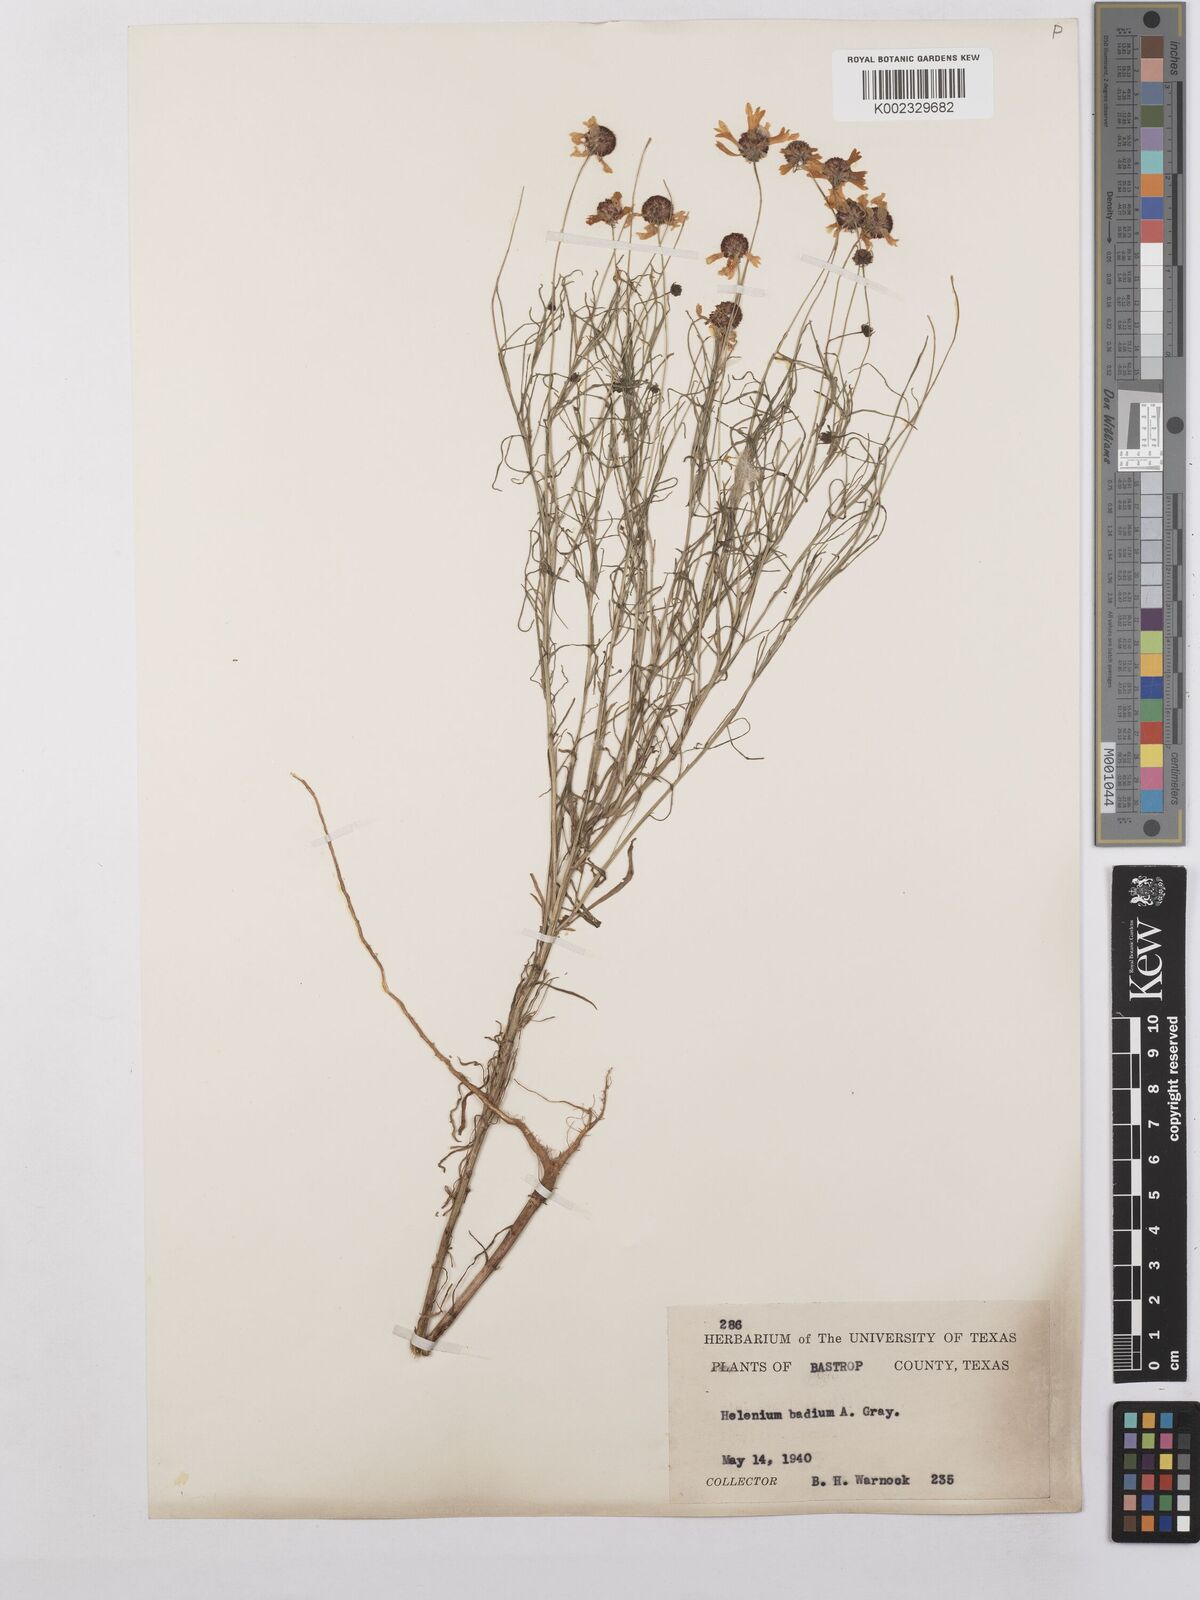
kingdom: Plantae
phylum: Tracheophyta
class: Magnoliopsida
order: Asterales
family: Asteraceae
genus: Helenium
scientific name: Helenium amarum
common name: Bitter sneezeweed
